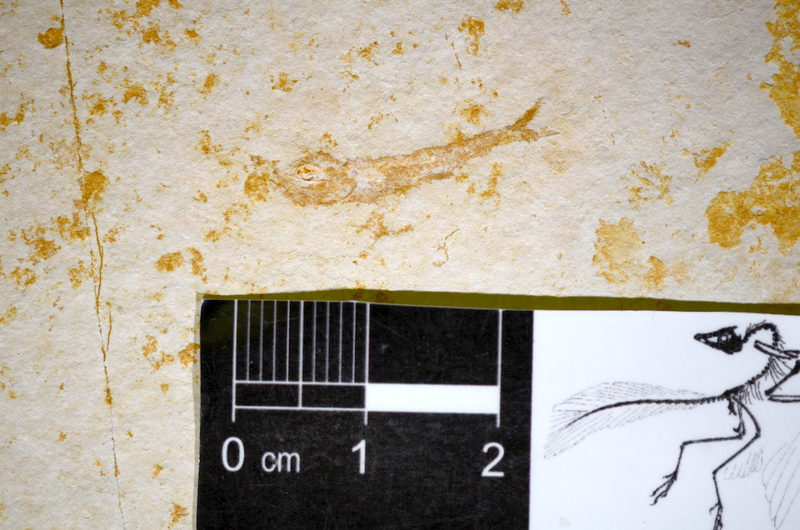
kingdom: Animalia
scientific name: Animalia
